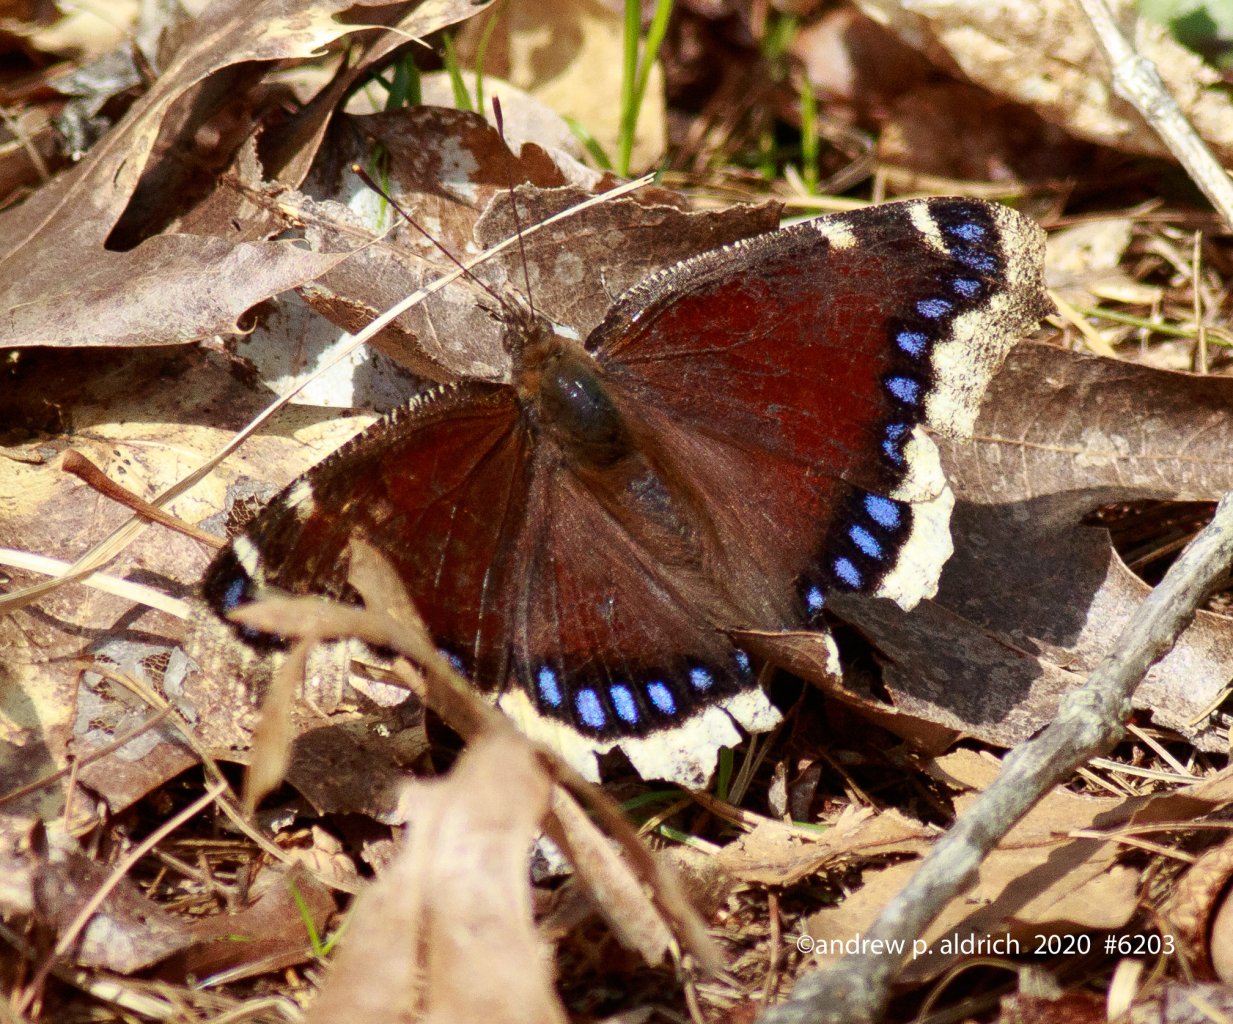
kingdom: Animalia
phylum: Arthropoda
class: Insecta
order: Lepidoptera
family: Nymphalidae
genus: Nymphalis
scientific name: Nymphalis antiopa
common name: Mourning Cloak
